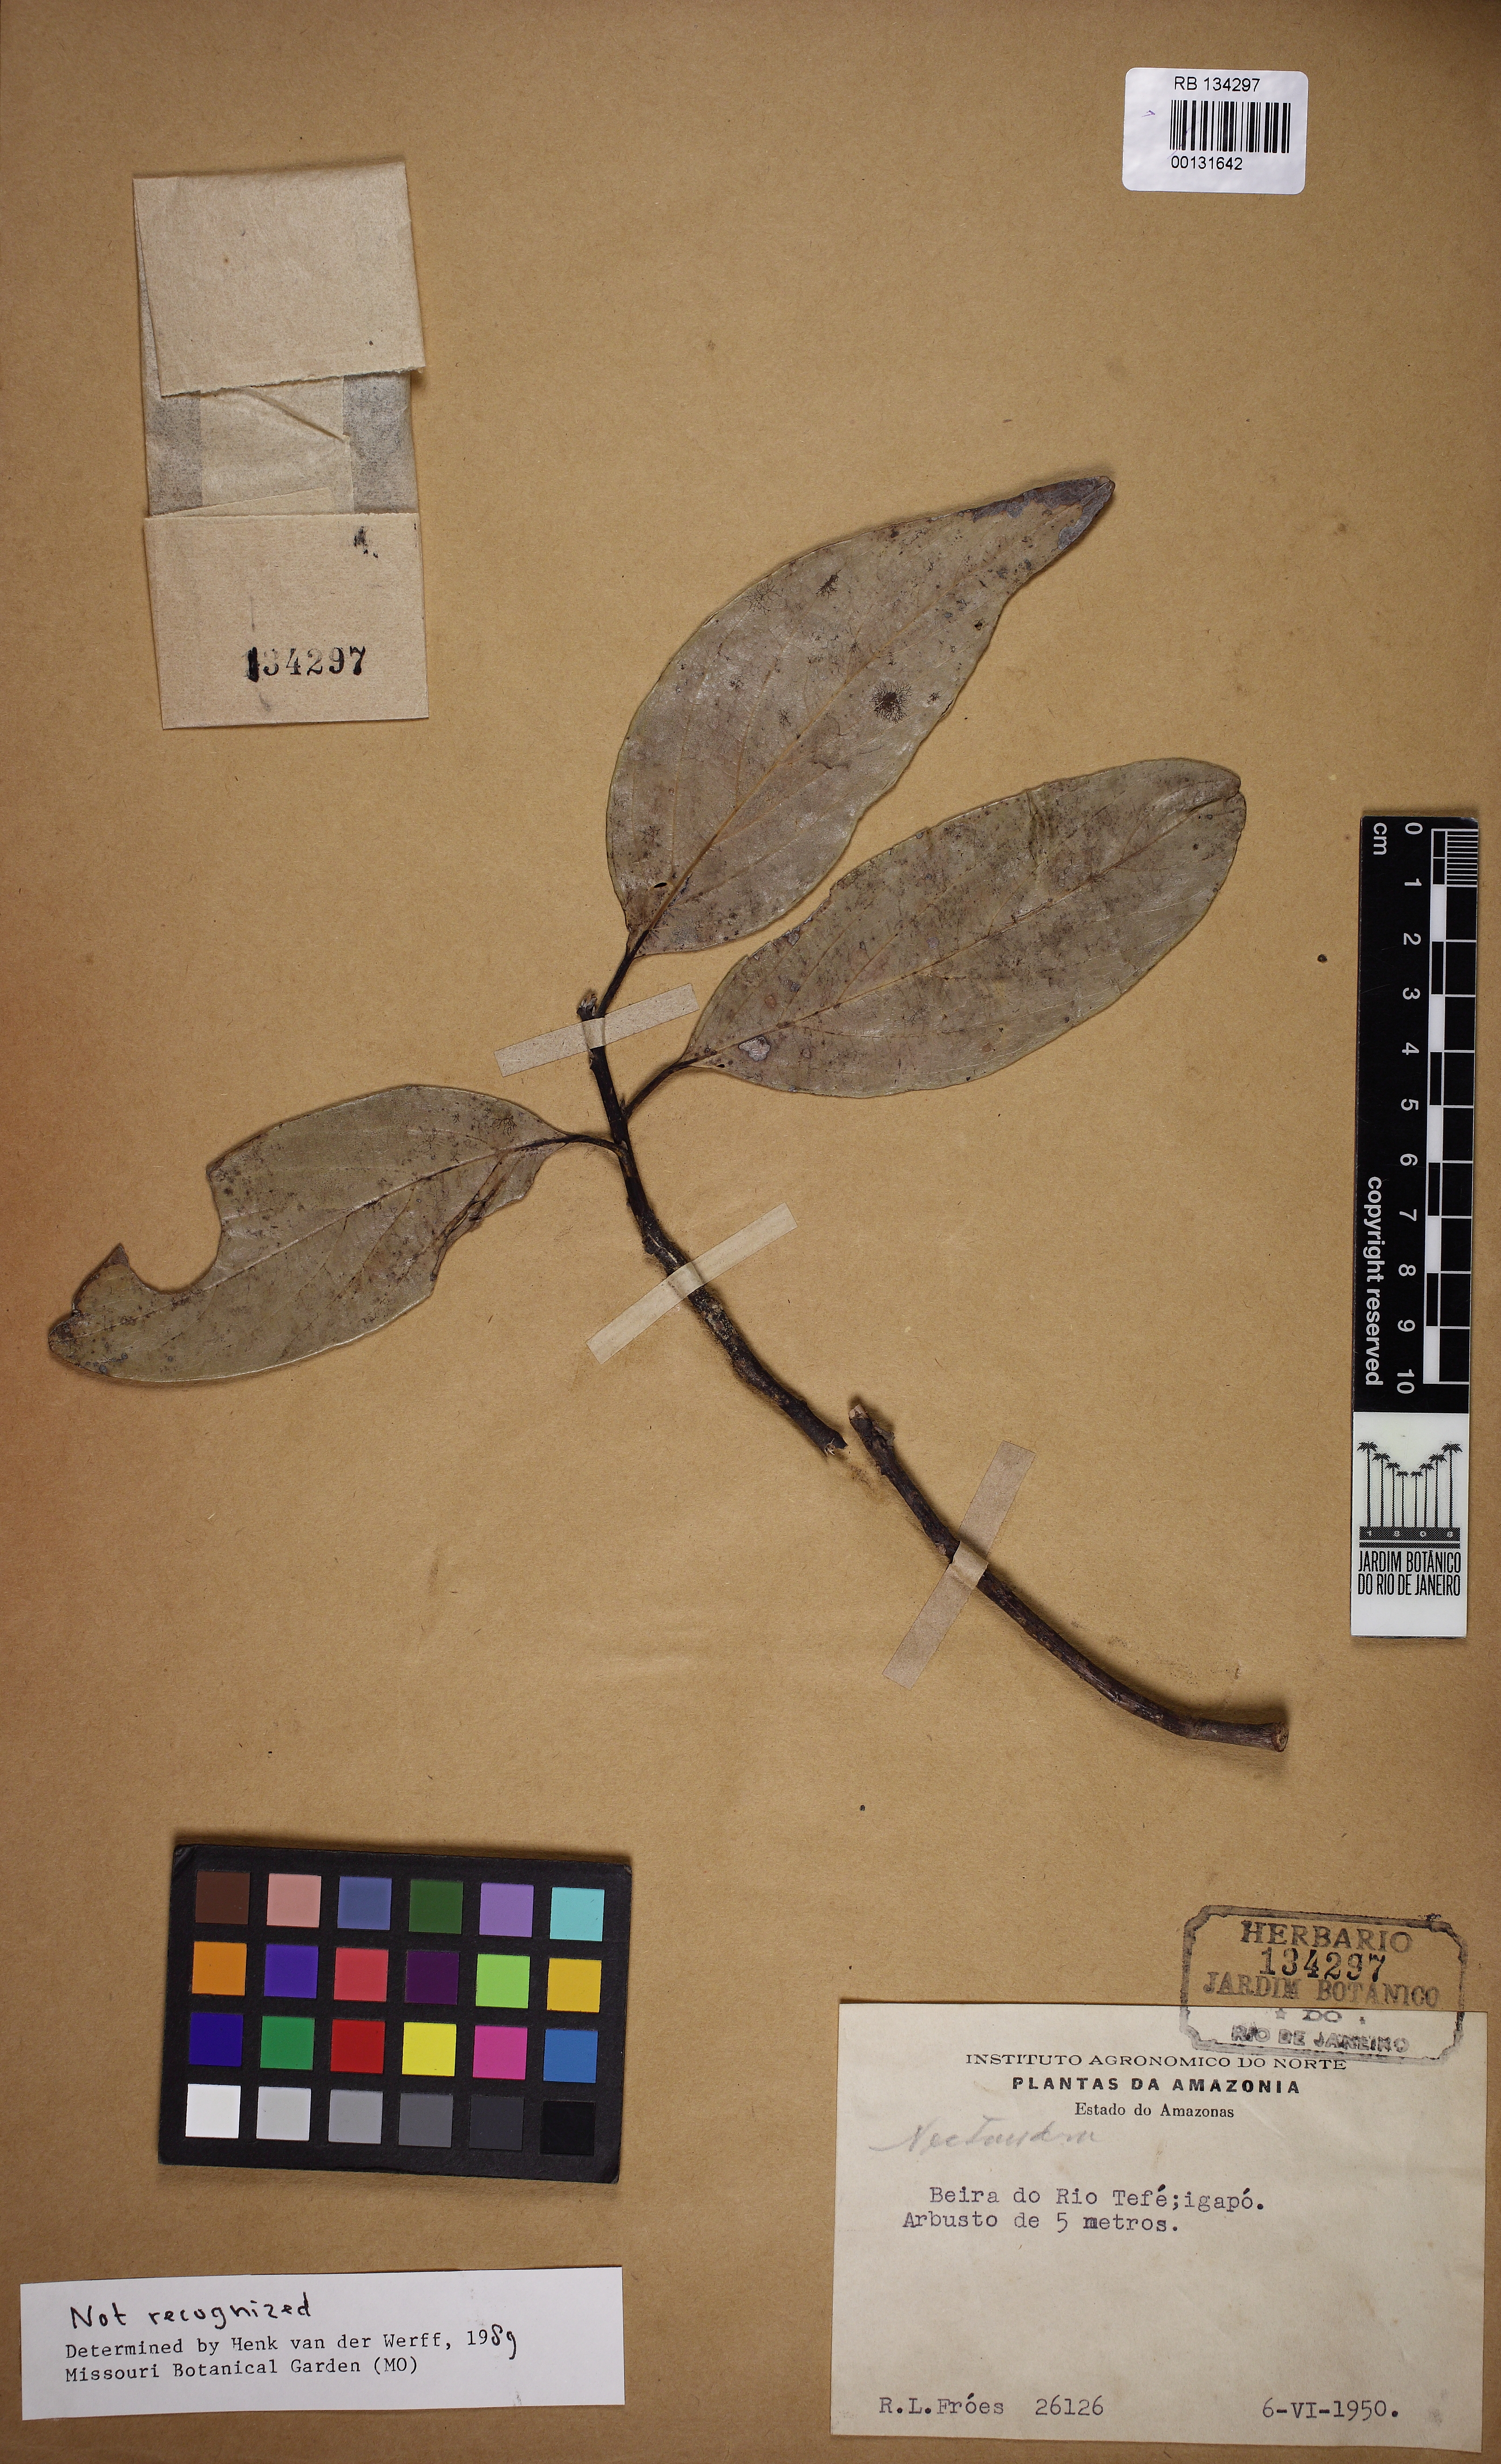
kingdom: Plantae
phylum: Tracheophyta
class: Magnoliopsida
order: Laurales
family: Lauraceae
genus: Nectandra
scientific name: Nectandra
